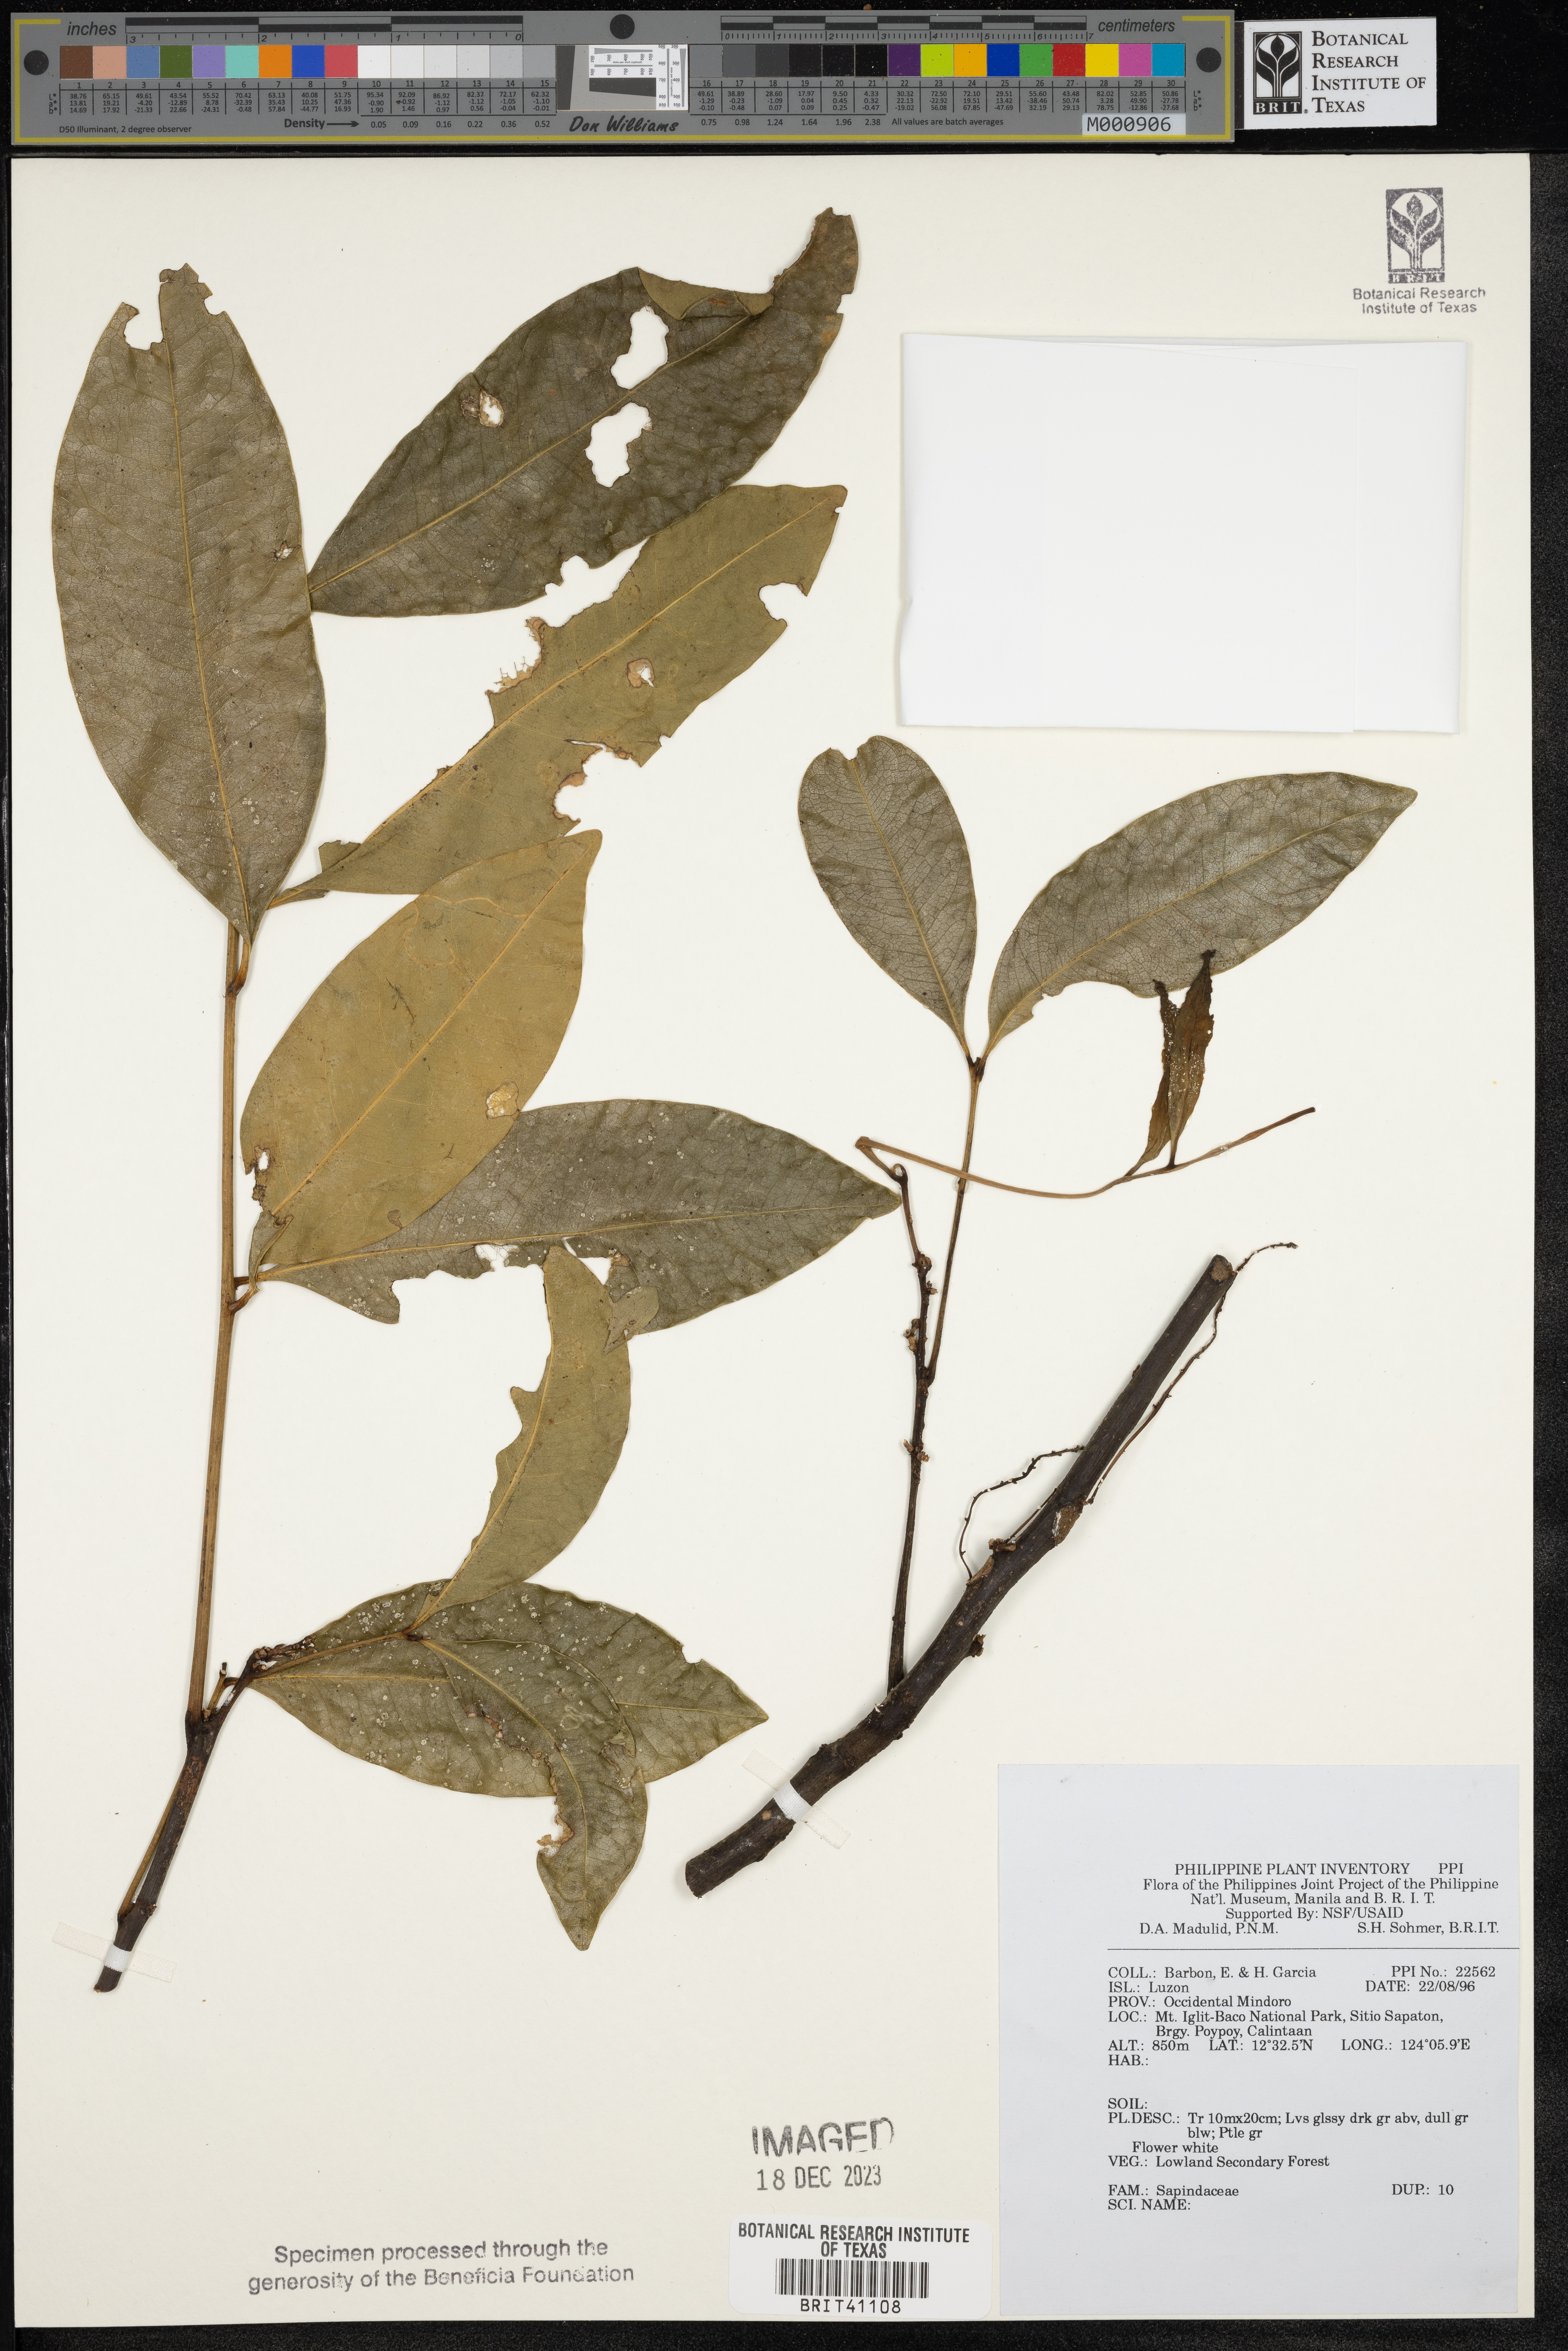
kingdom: Plantae
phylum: Tracheophyta
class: Magnoliopsida
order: Sapindales
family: Sapindaceae
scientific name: Sapindaceae
